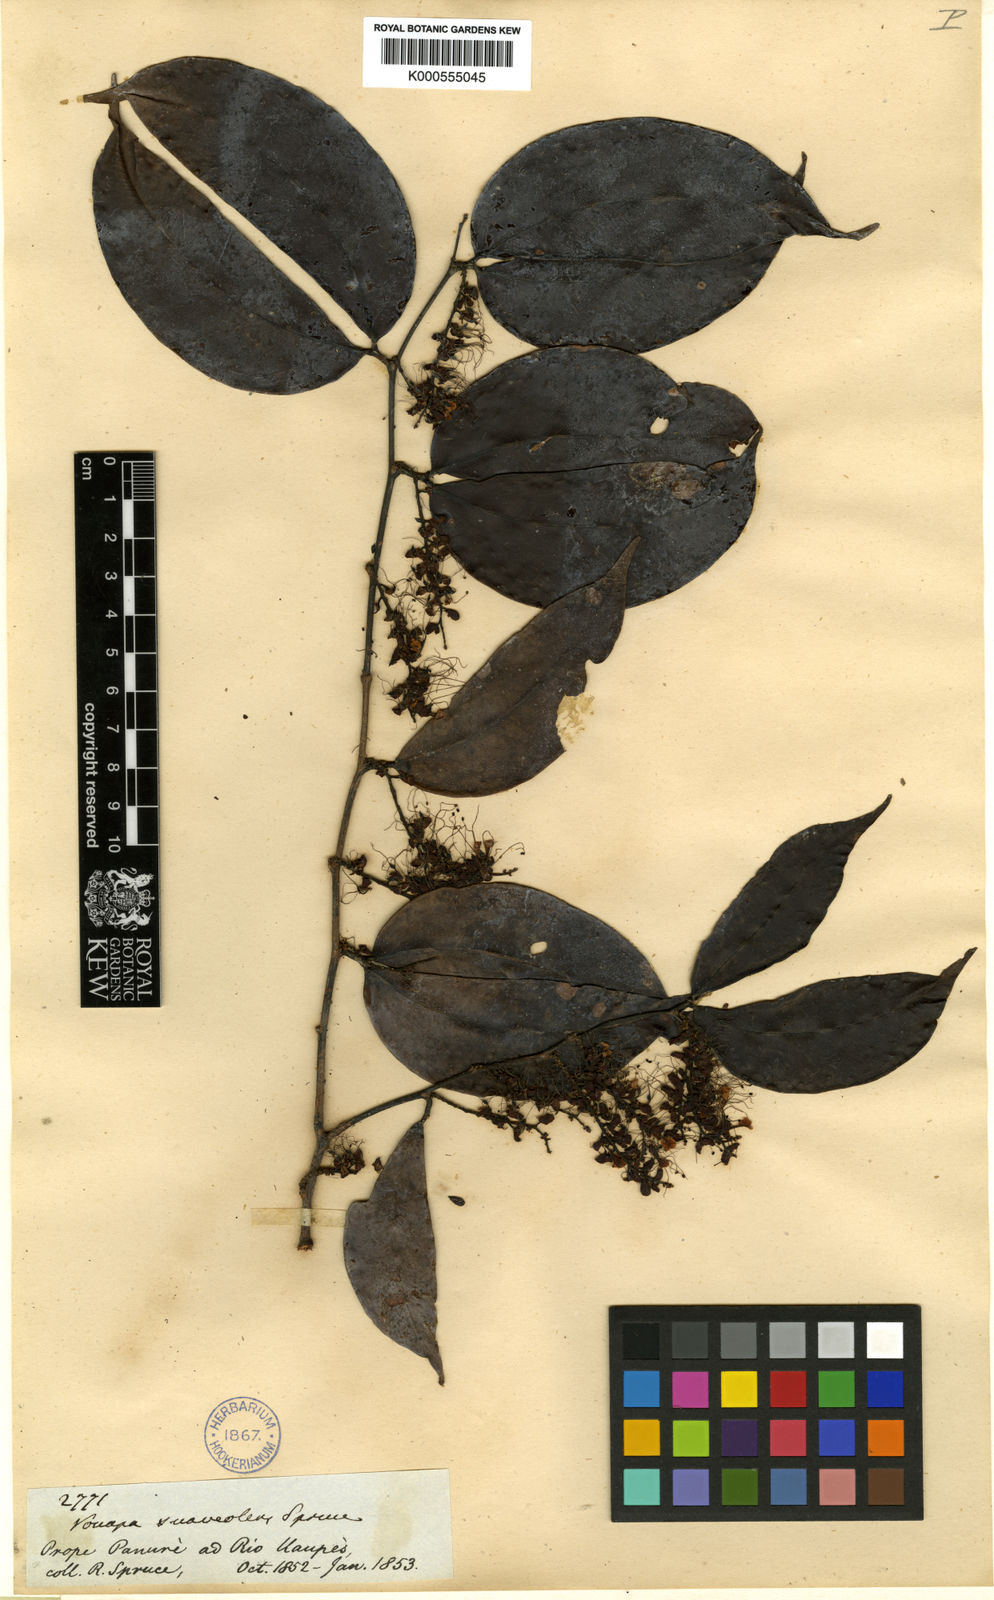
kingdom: Plantae
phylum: Tracheophyta
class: Magnoliopsida
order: Fabales
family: Fabaceae
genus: Macrolobium
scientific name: Macrolobium suaveolens
